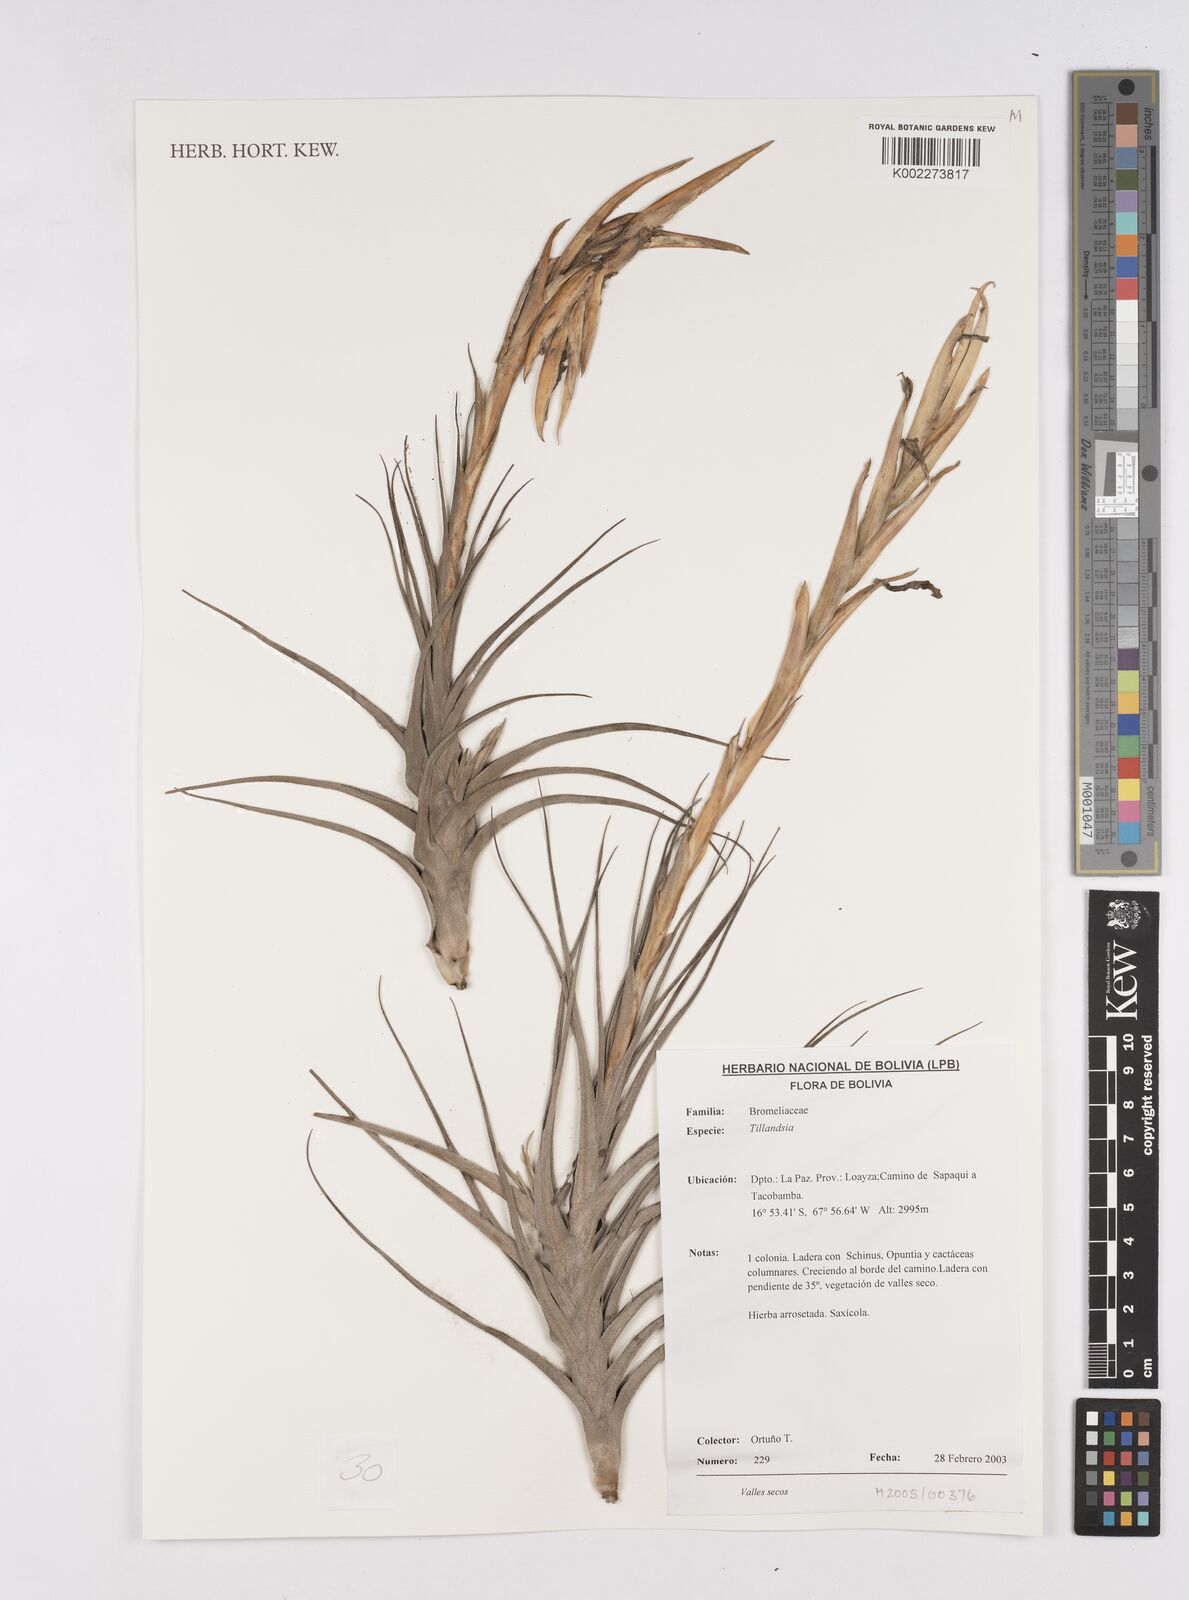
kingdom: Plantae
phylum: Tracheophyta
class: Liliopsida
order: Poales
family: Bromeliaceae
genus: Tillandsia
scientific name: Tillandsia
